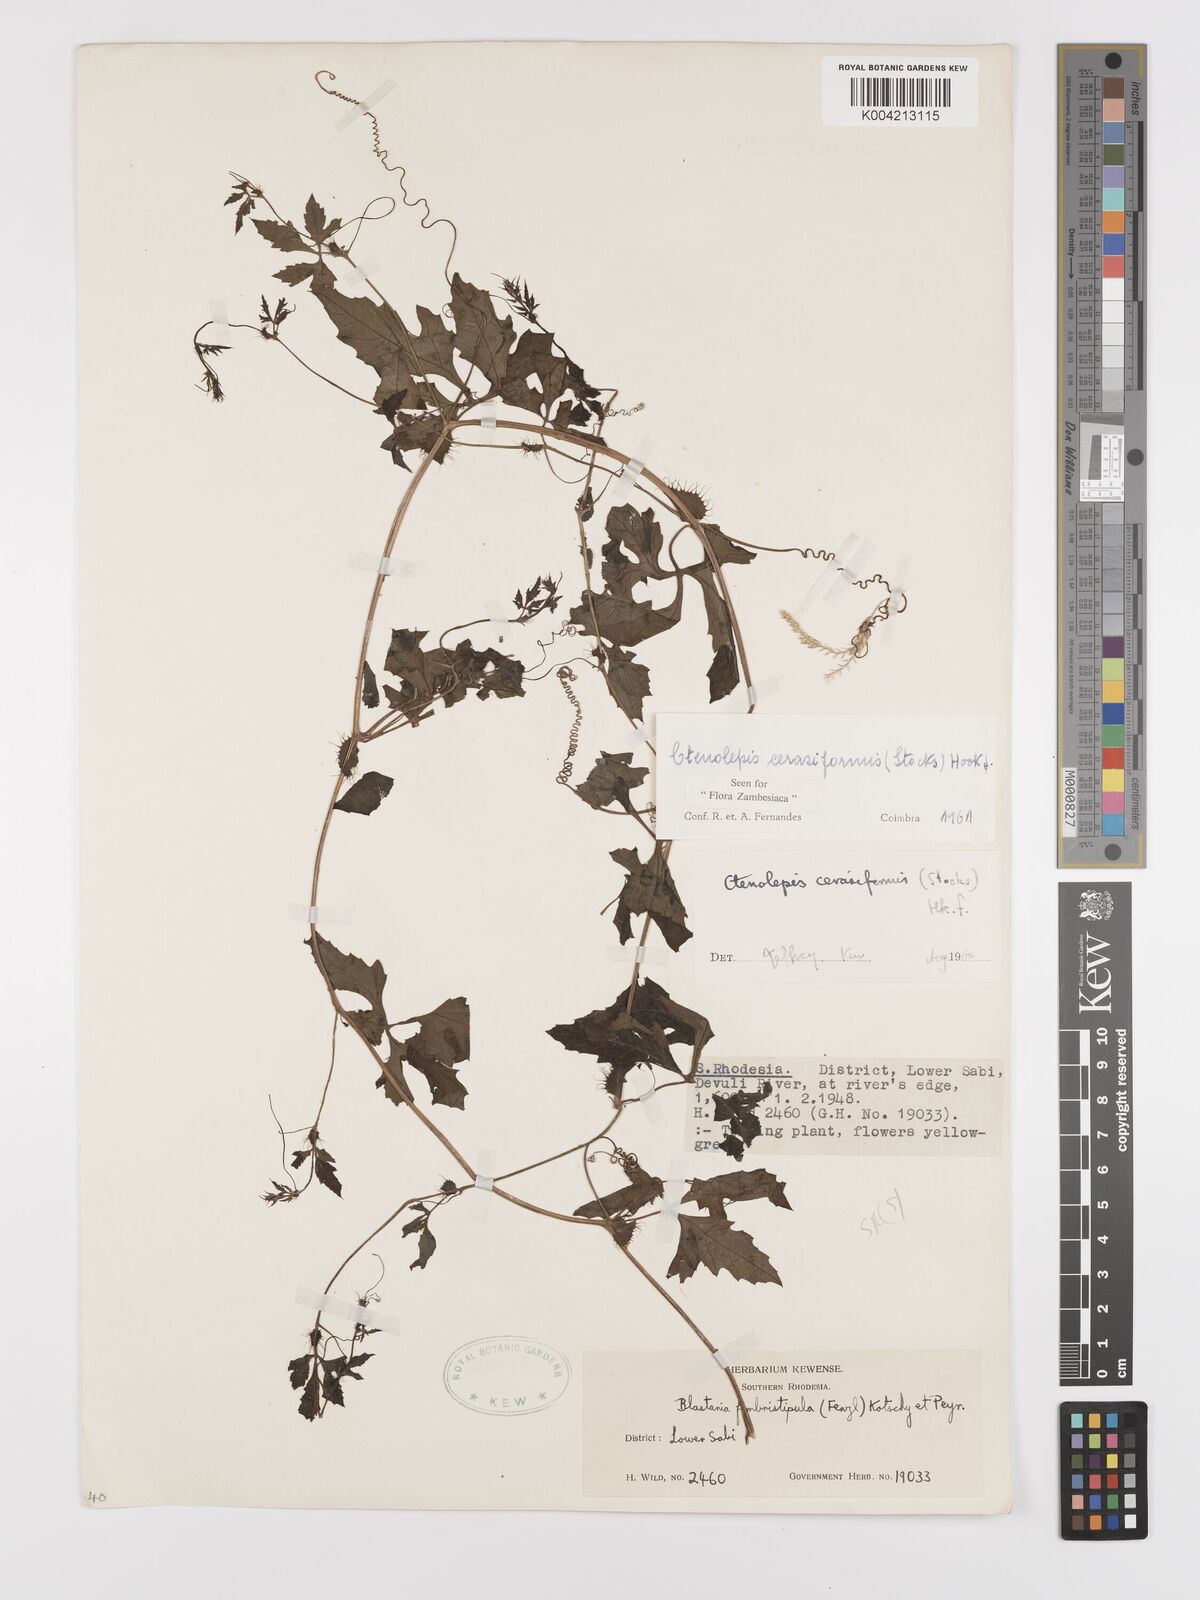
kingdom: Plantae
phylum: Tracheophyta
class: Magnoliopsida
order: Cucurbitales
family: Cucurbitaceae
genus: Blastania
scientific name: Blastania cerasiformis
